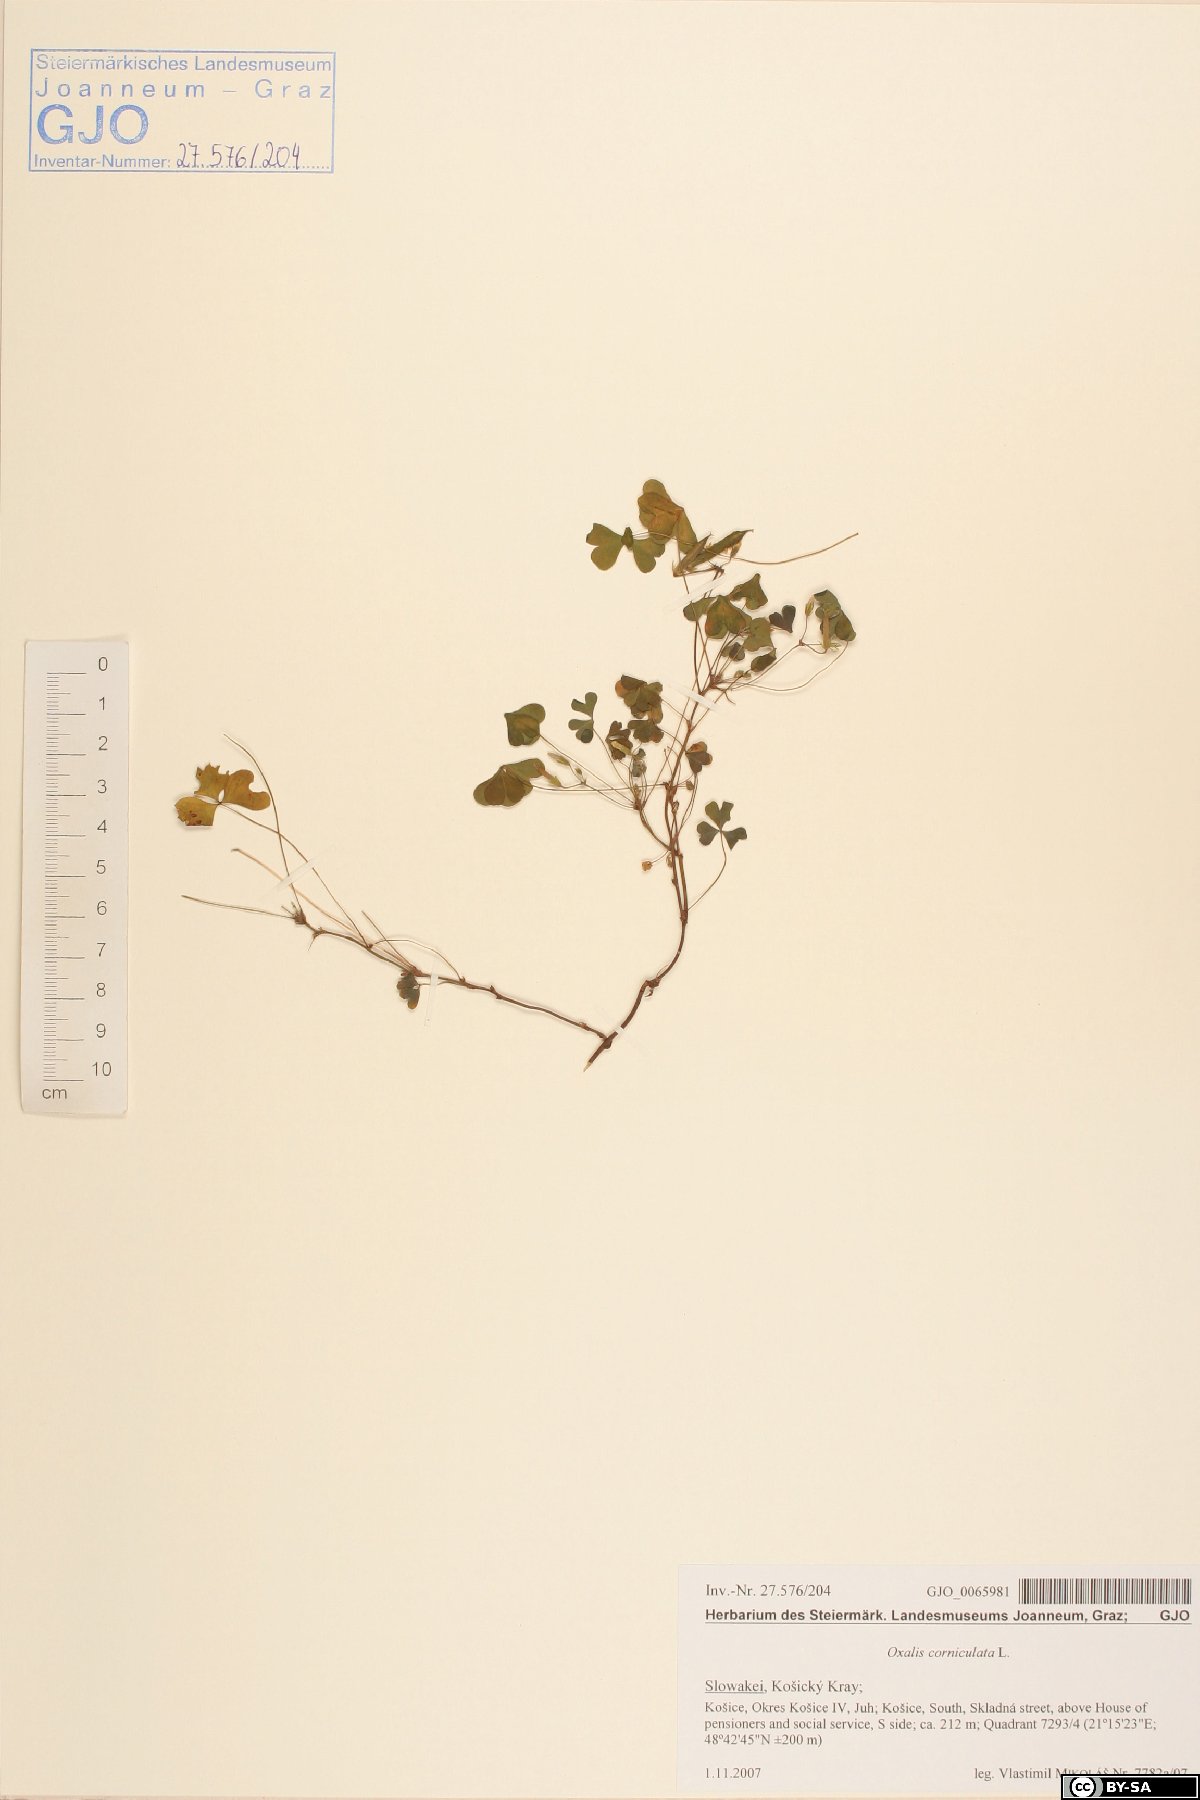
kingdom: Plantae
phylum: Tracheophyta
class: Magnoliopsida
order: Oxalidales
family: Oxalidaceae
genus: Oxalis
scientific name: Oxalis corniculata
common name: Procumbent yellow-sorrel
